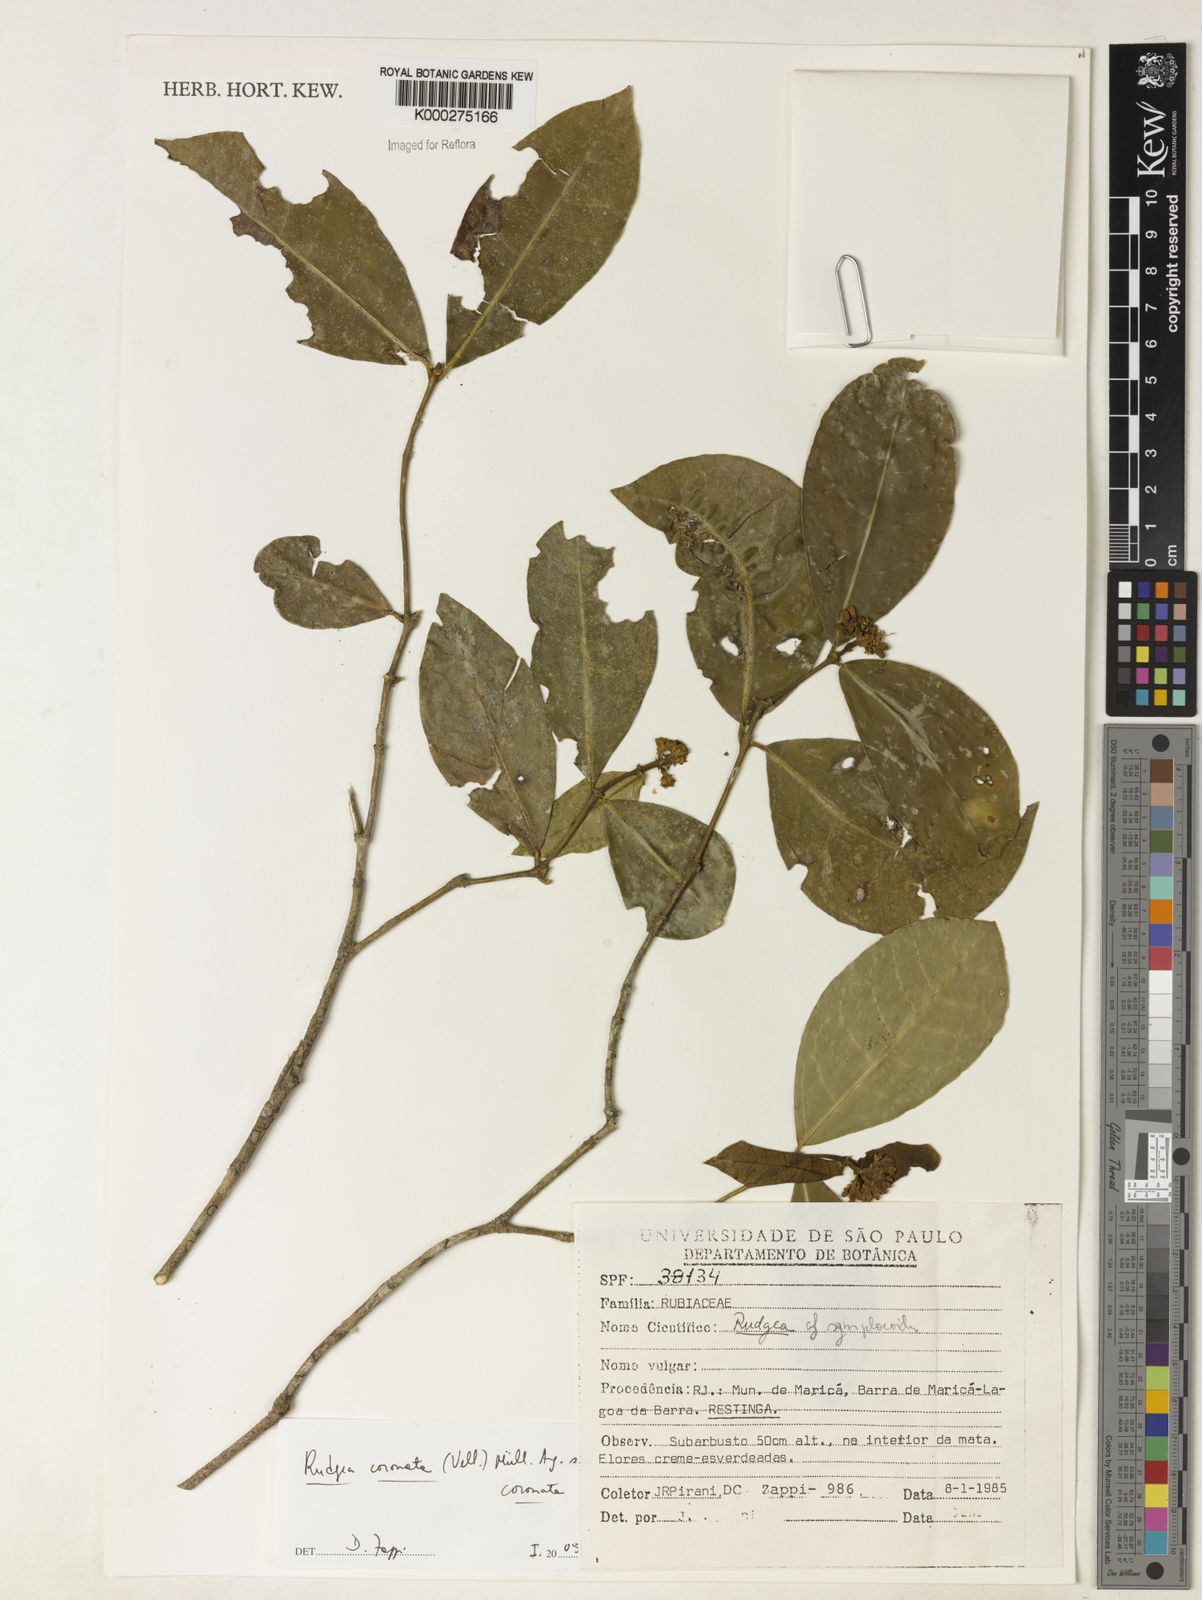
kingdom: Plantae
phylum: Tracheophyta
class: Magnoliopsida
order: Gentianales
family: Rubiaceae
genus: Rudgea
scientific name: Rudgea coronata
